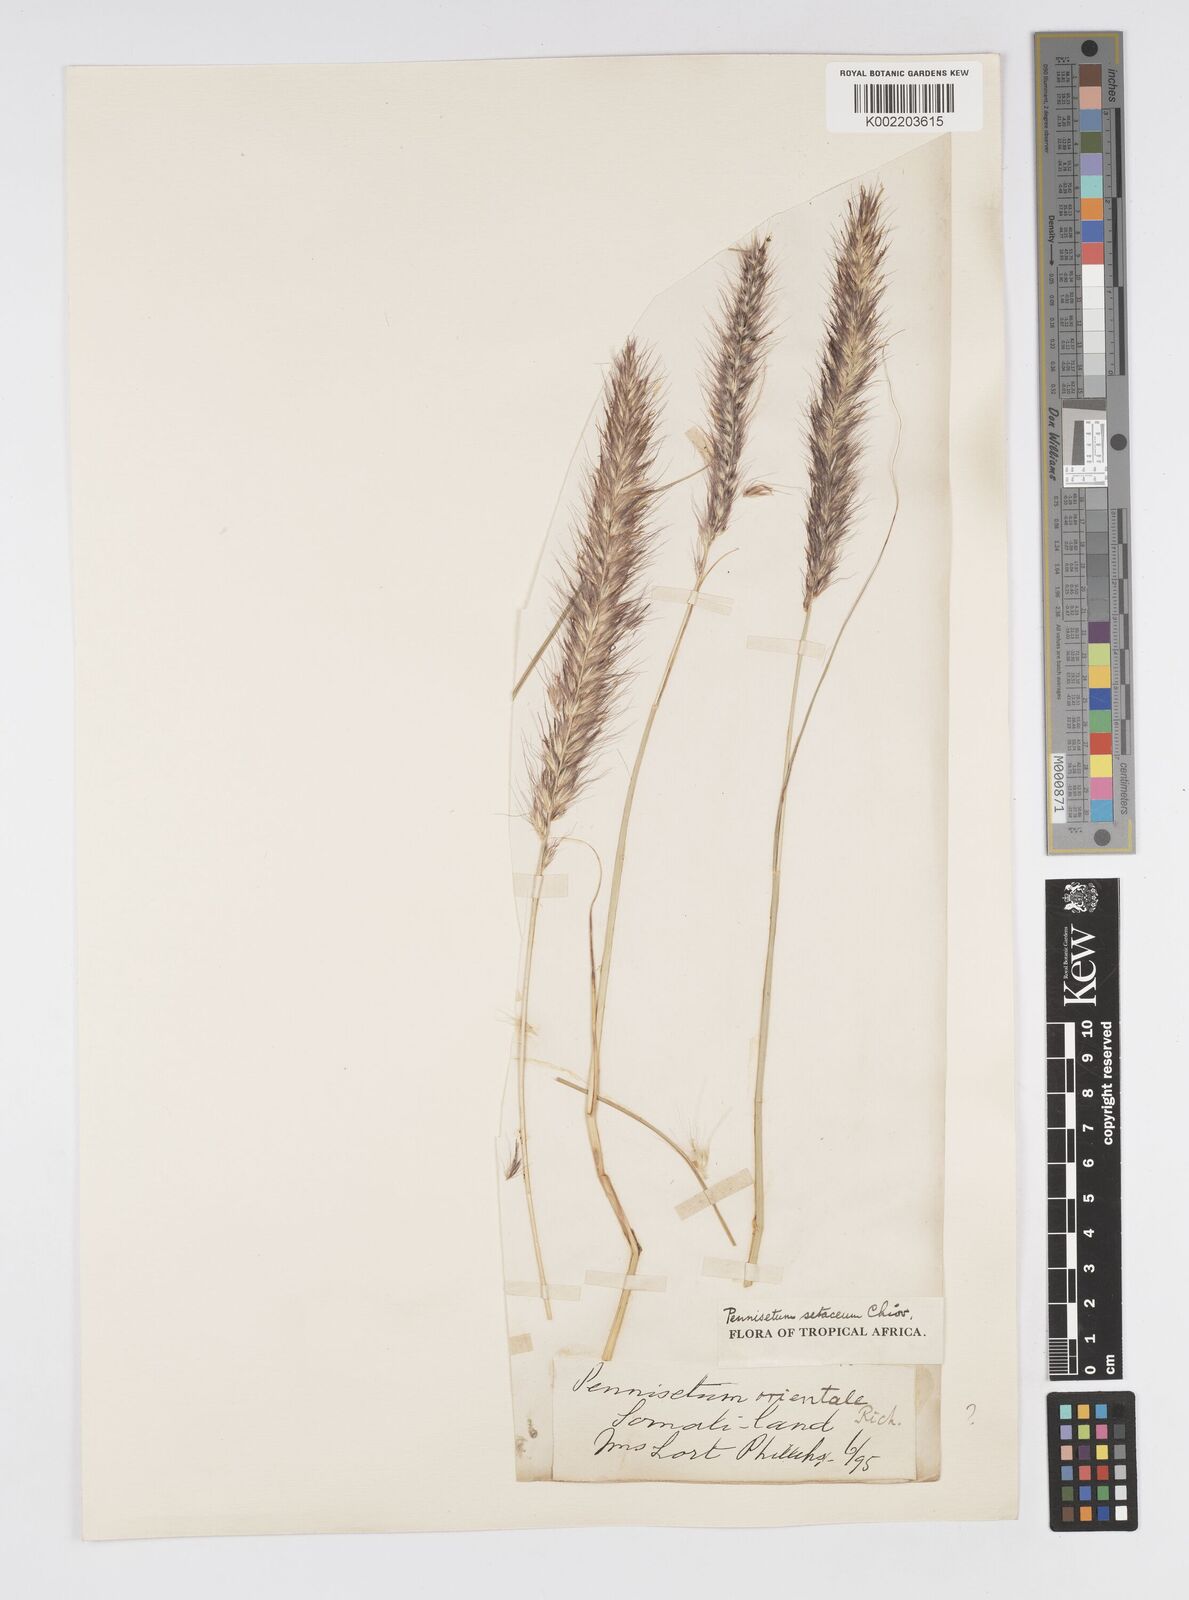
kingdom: Plantae
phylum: Tracheophyta
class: Liliopsida
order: Poales
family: Poaceae
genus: Cenchrus
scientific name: Cenchrus setaceus
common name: Crimson fountaingrass
